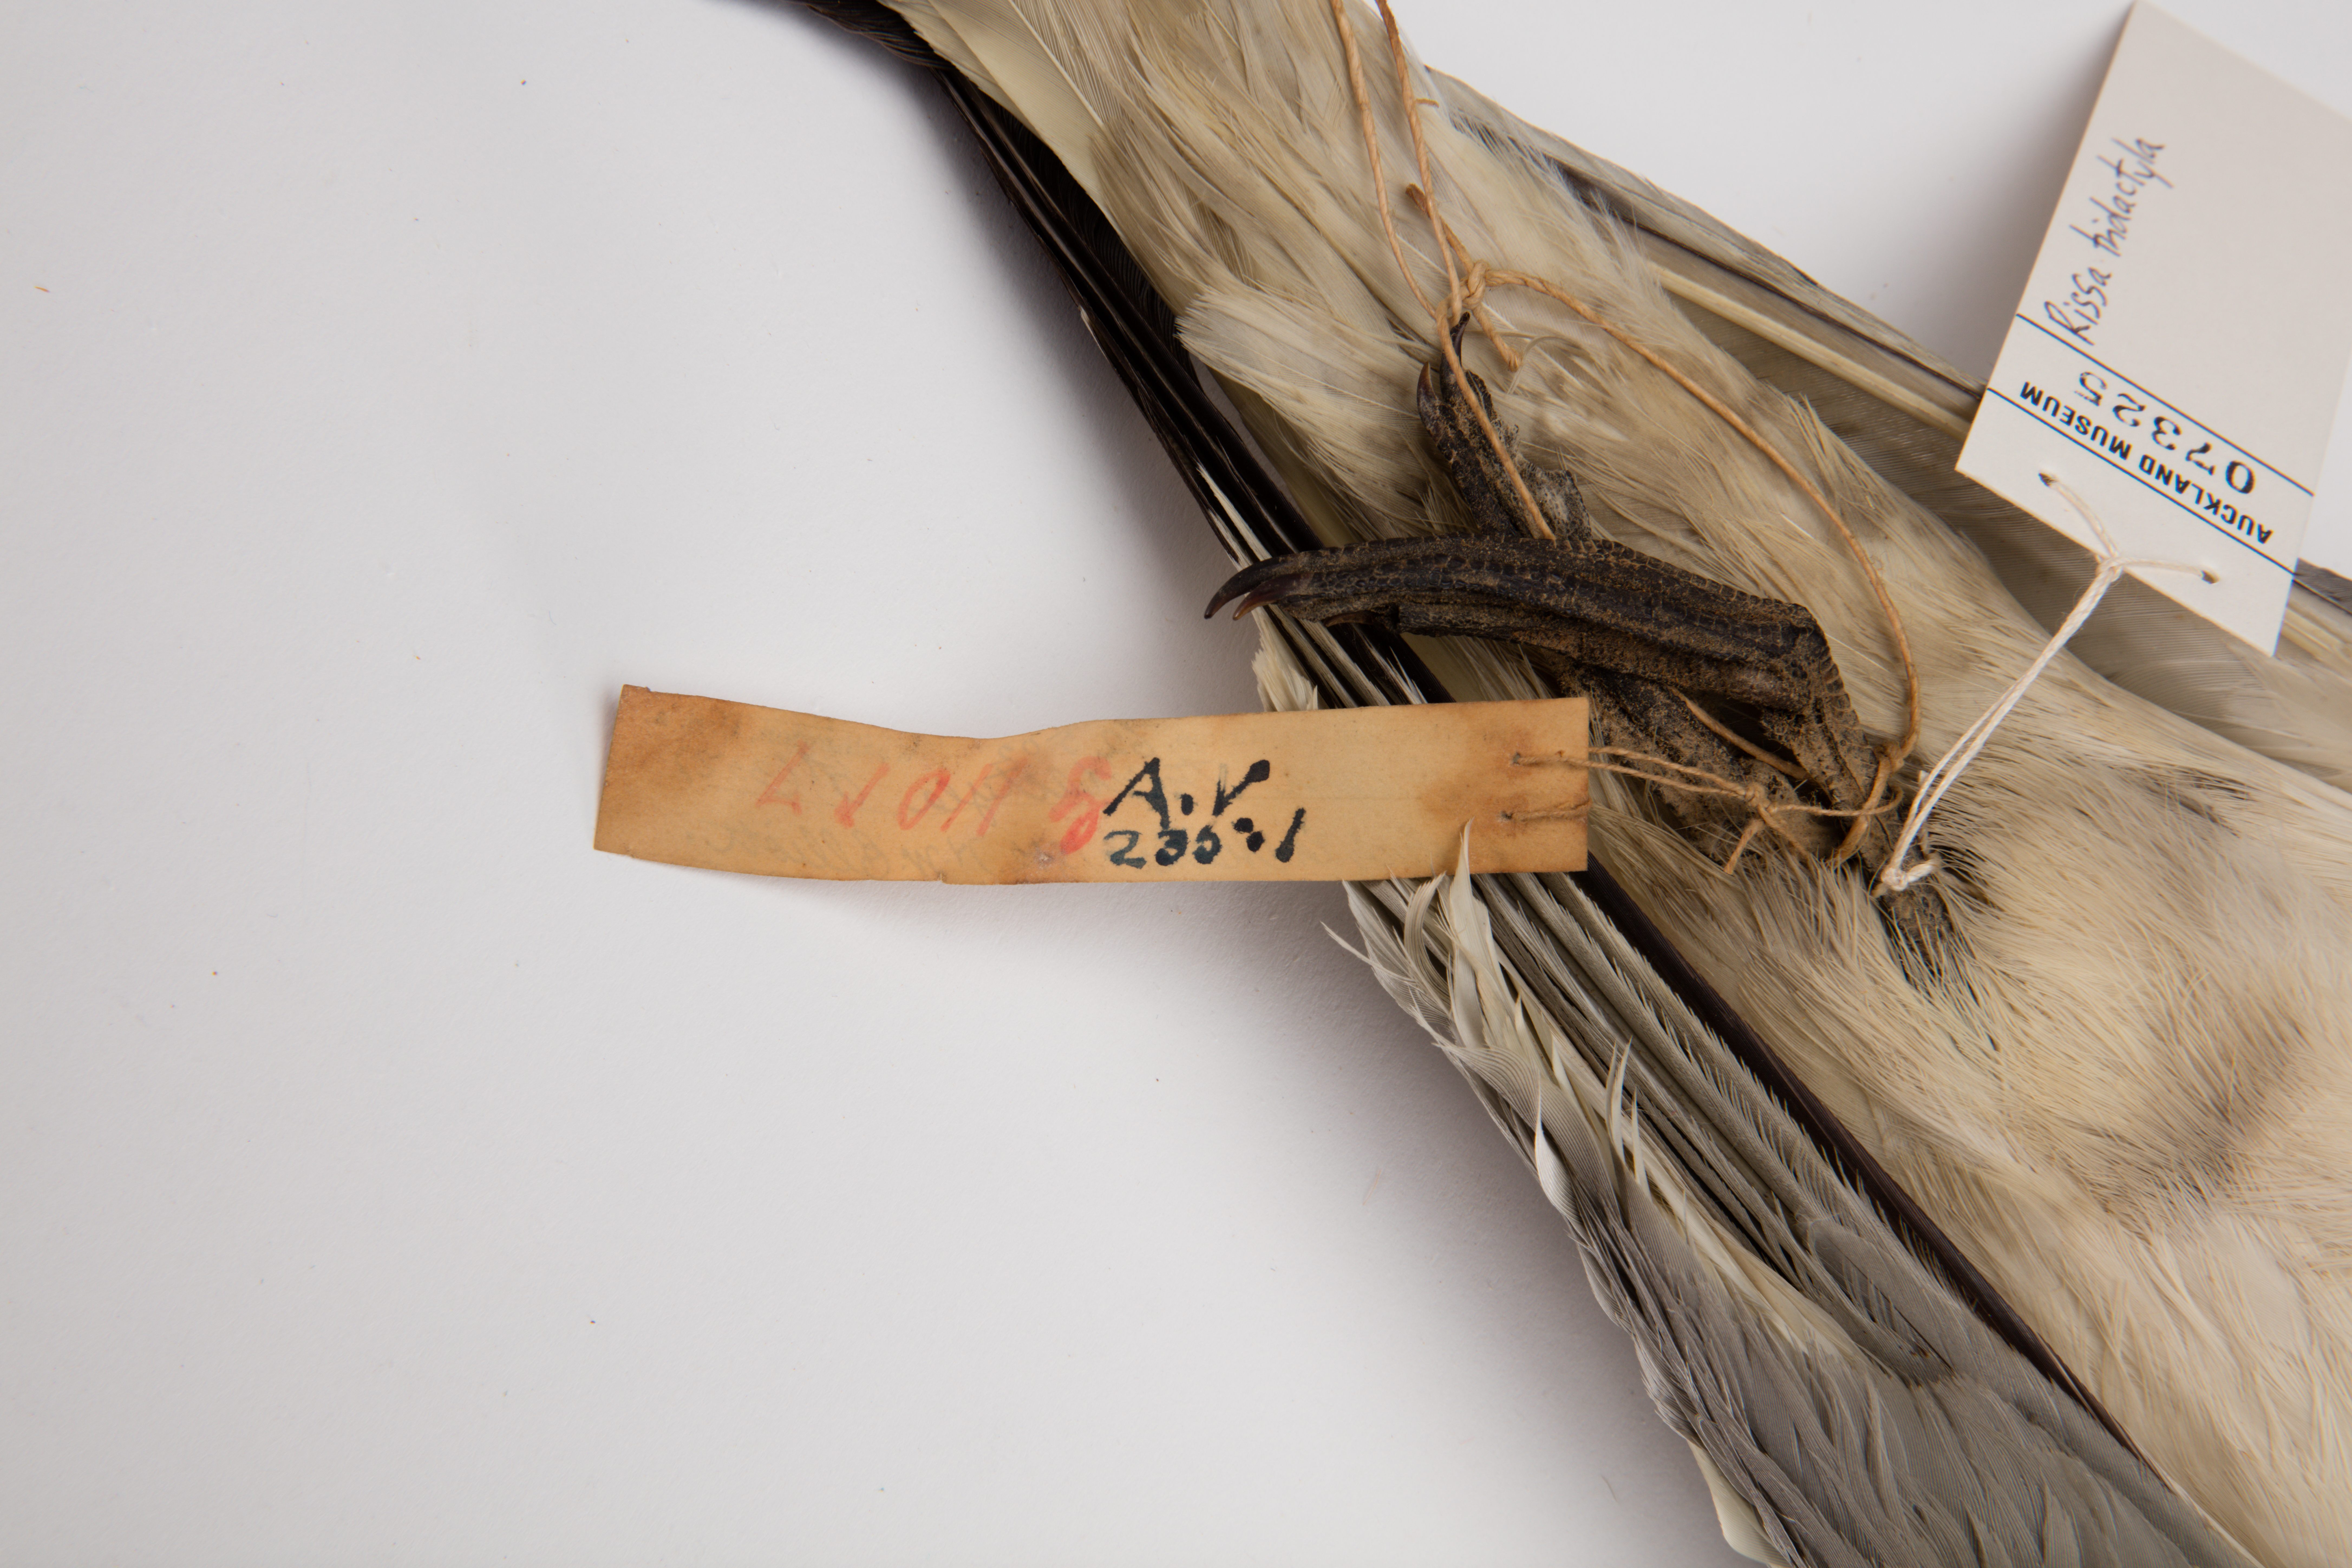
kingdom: Animalia
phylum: Chordata
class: Aves
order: Charadriiformes
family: Laridae
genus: Rissa
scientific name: Rissa tridactyla
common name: Black-legged kittiwake
